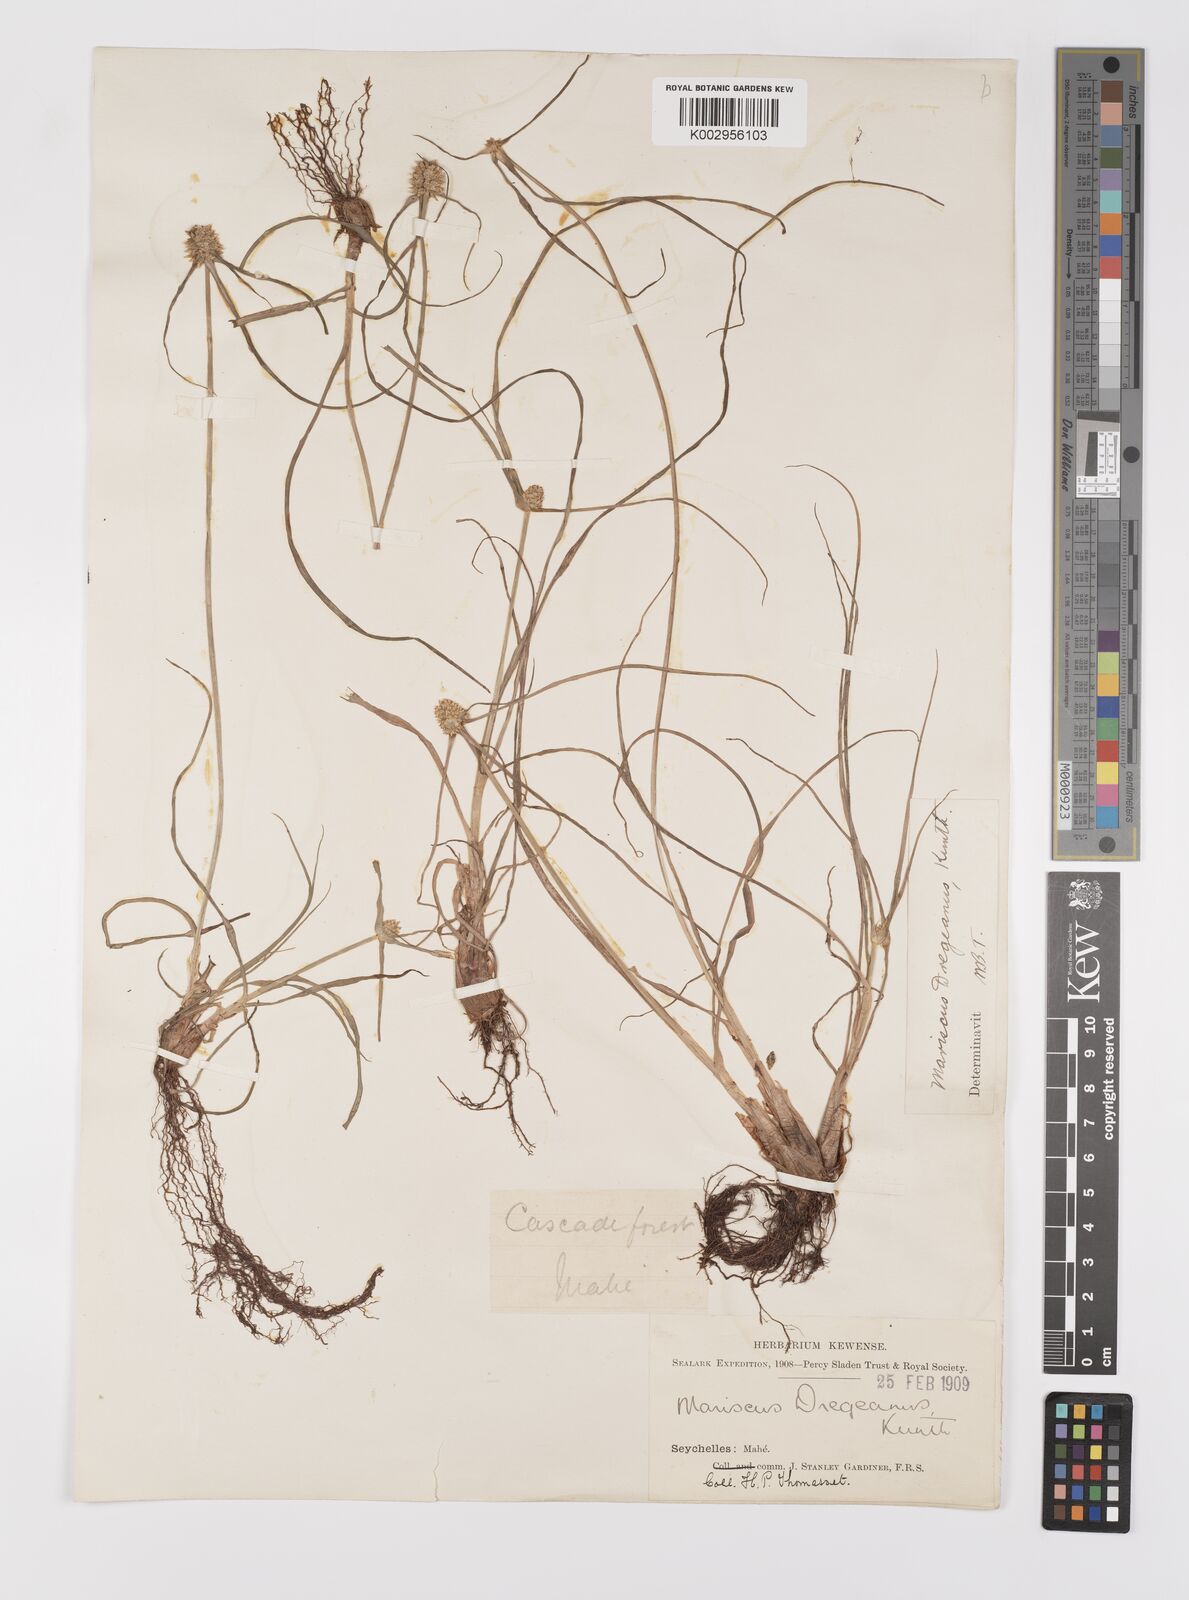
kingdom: Plantae
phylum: Tracheophyta
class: Liliopsida
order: Poales
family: Cyperaceae
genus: Cyperus
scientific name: Cyperus dubius
